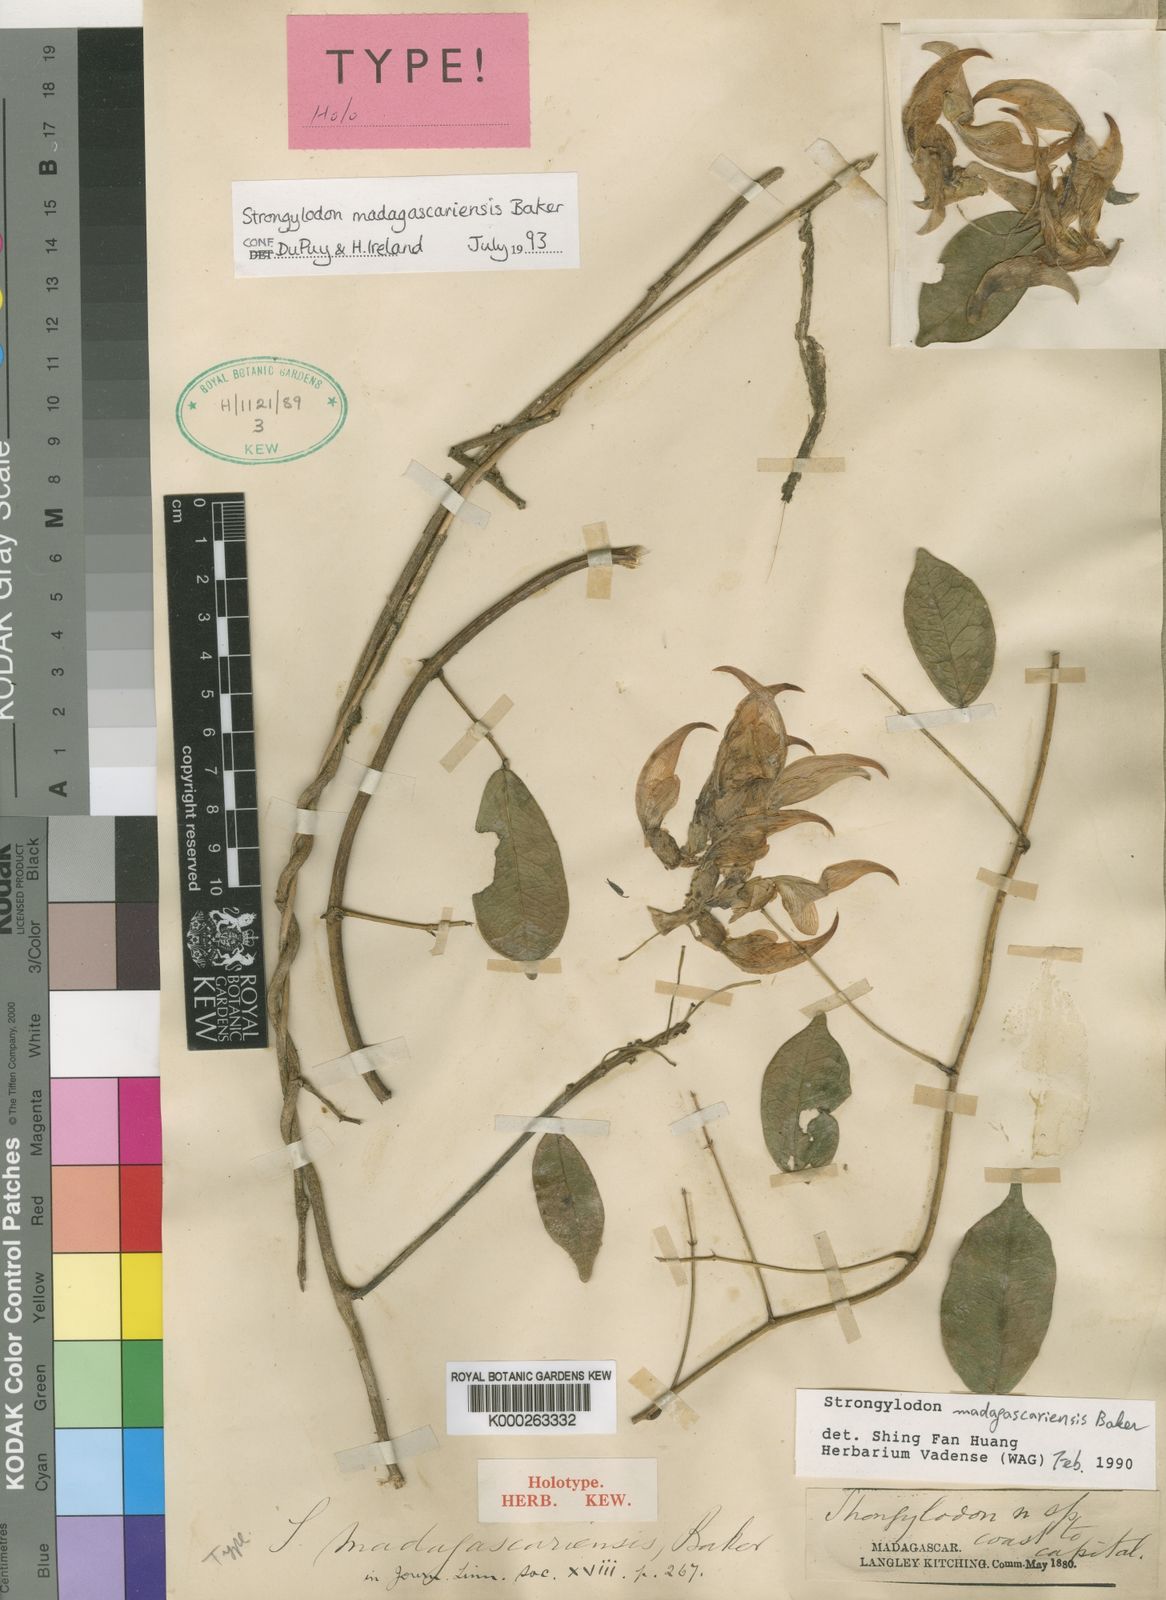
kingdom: Plantae
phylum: Tracheophyta
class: Magnoliopsida
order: Fabales
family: Fabaceae
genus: Strongylodon
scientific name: Strongylodon madagascariensis
